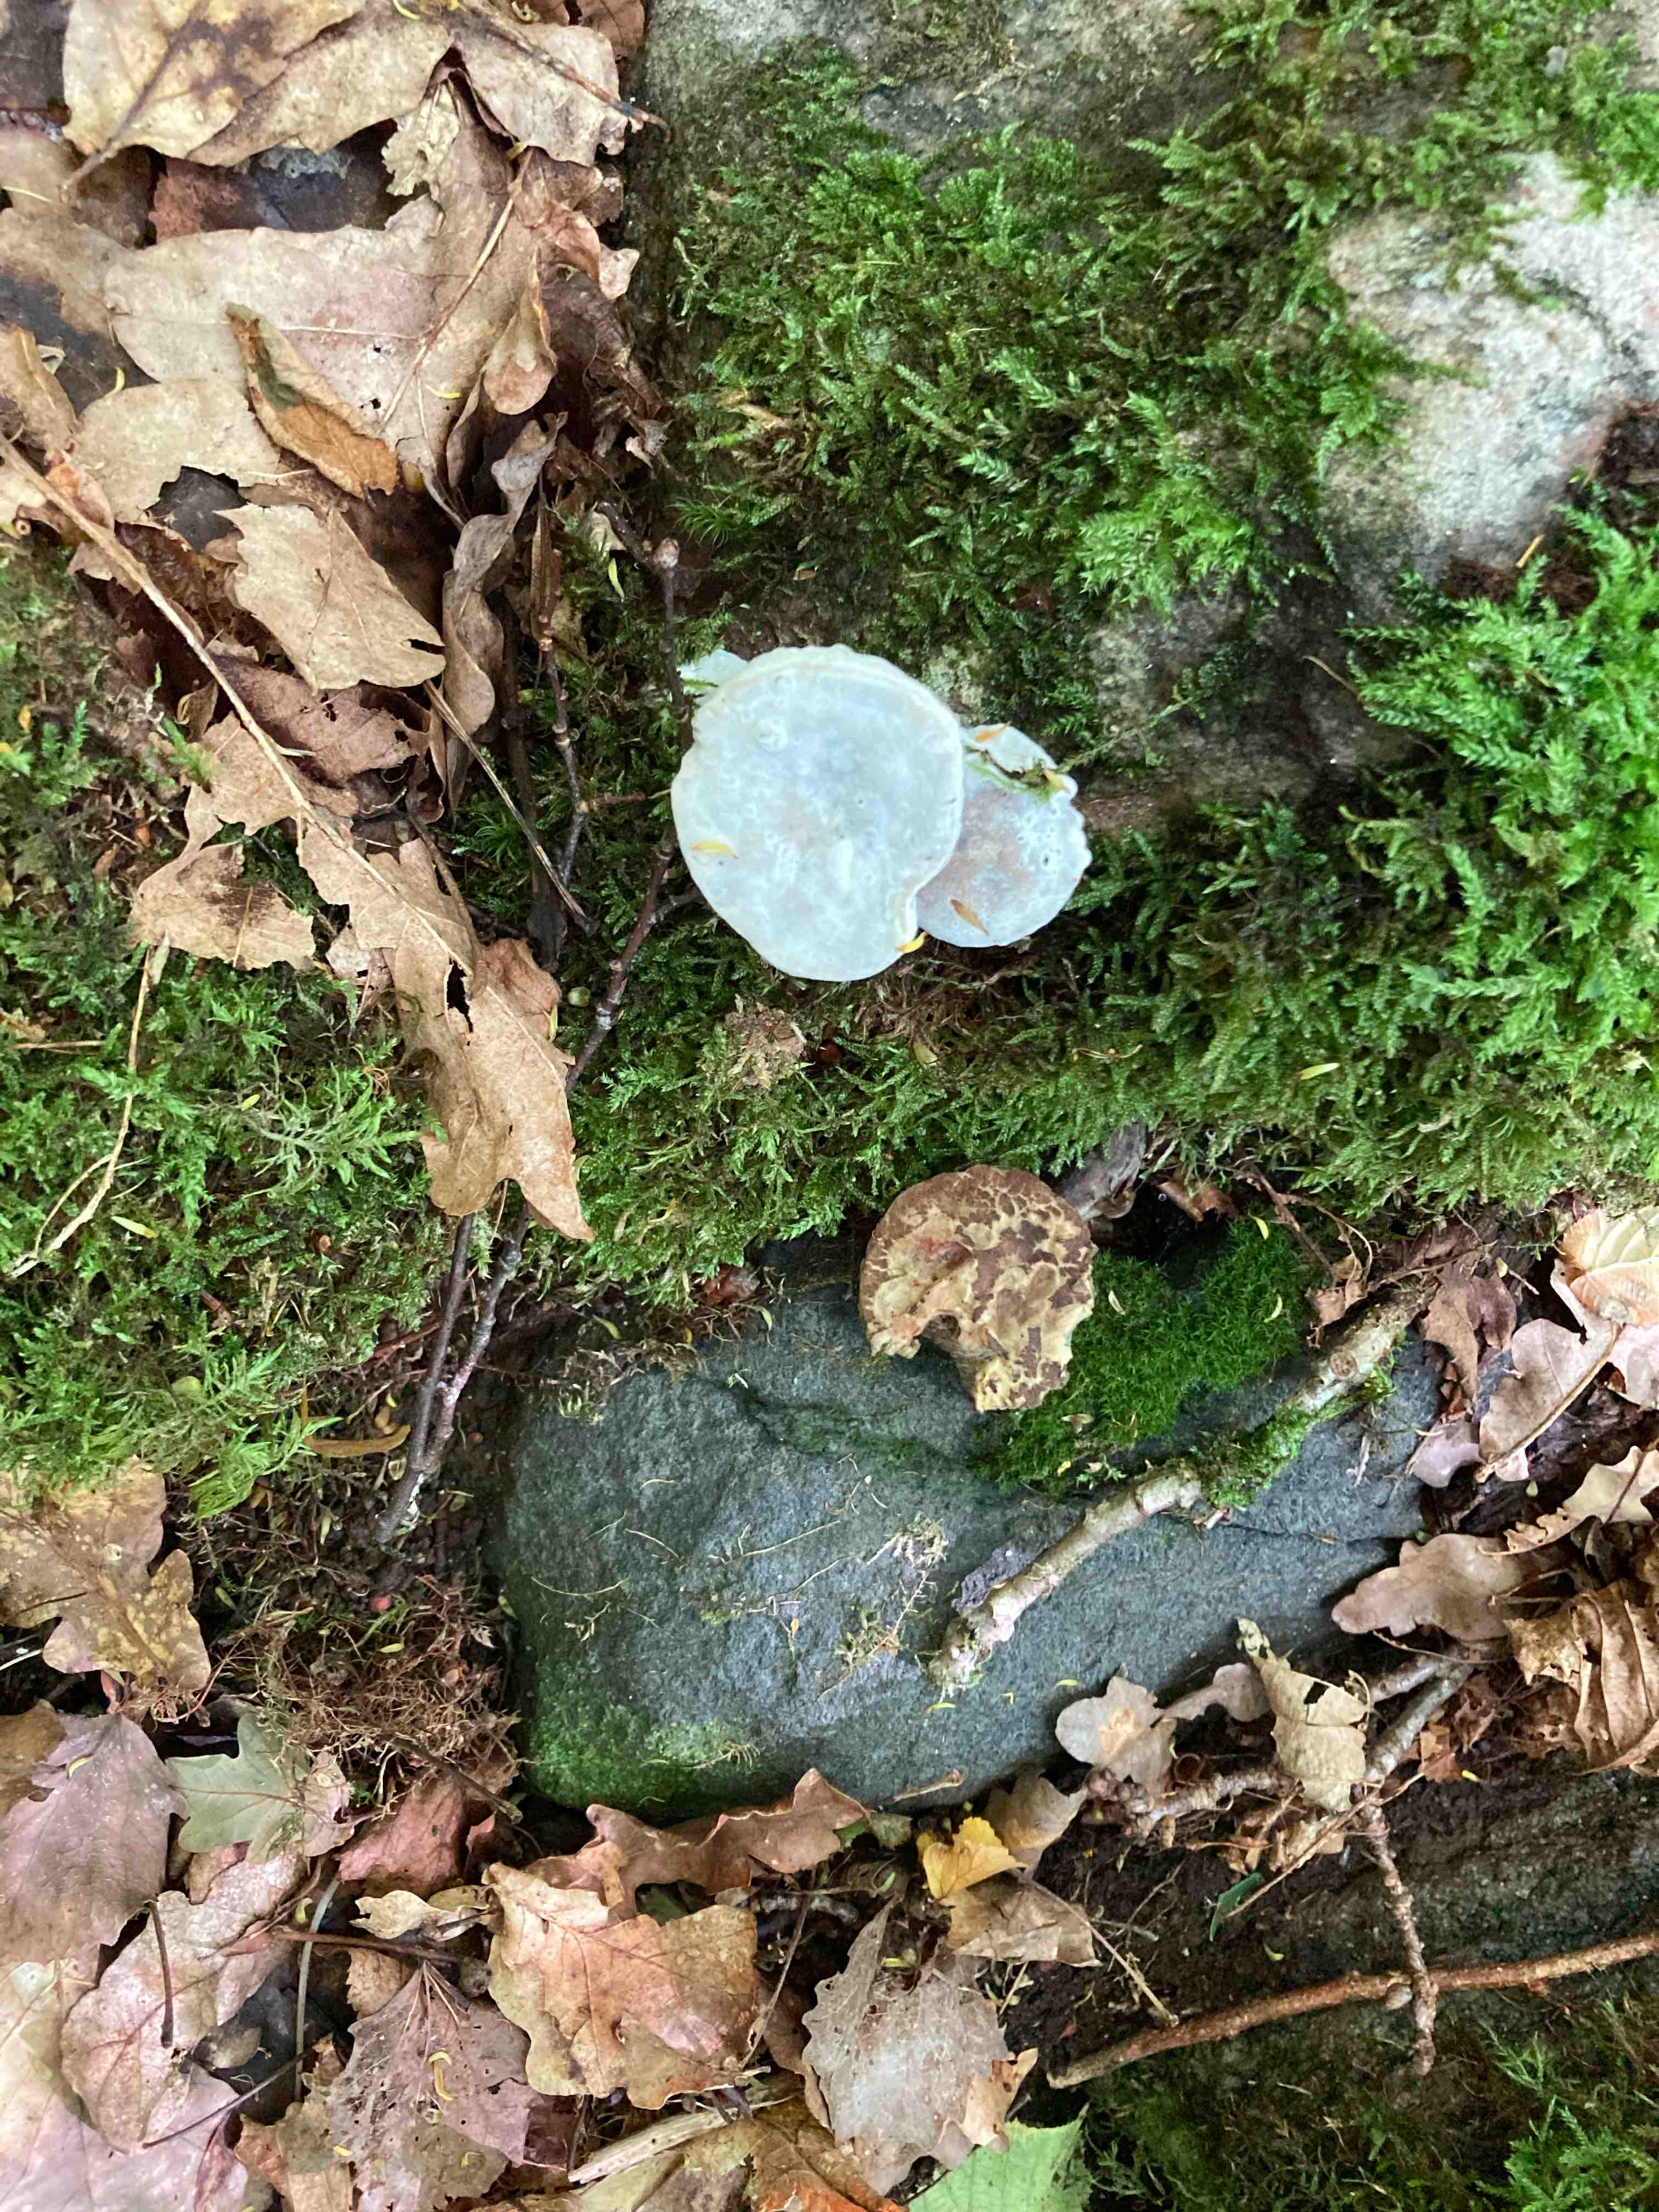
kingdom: Fungi
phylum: Ascomycota
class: Sordariomycetes
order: Hypocreales
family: Hypocreaceae
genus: Hypomyces
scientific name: Hypomyces microspermus
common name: dværgrørhat-snylteskorpe
